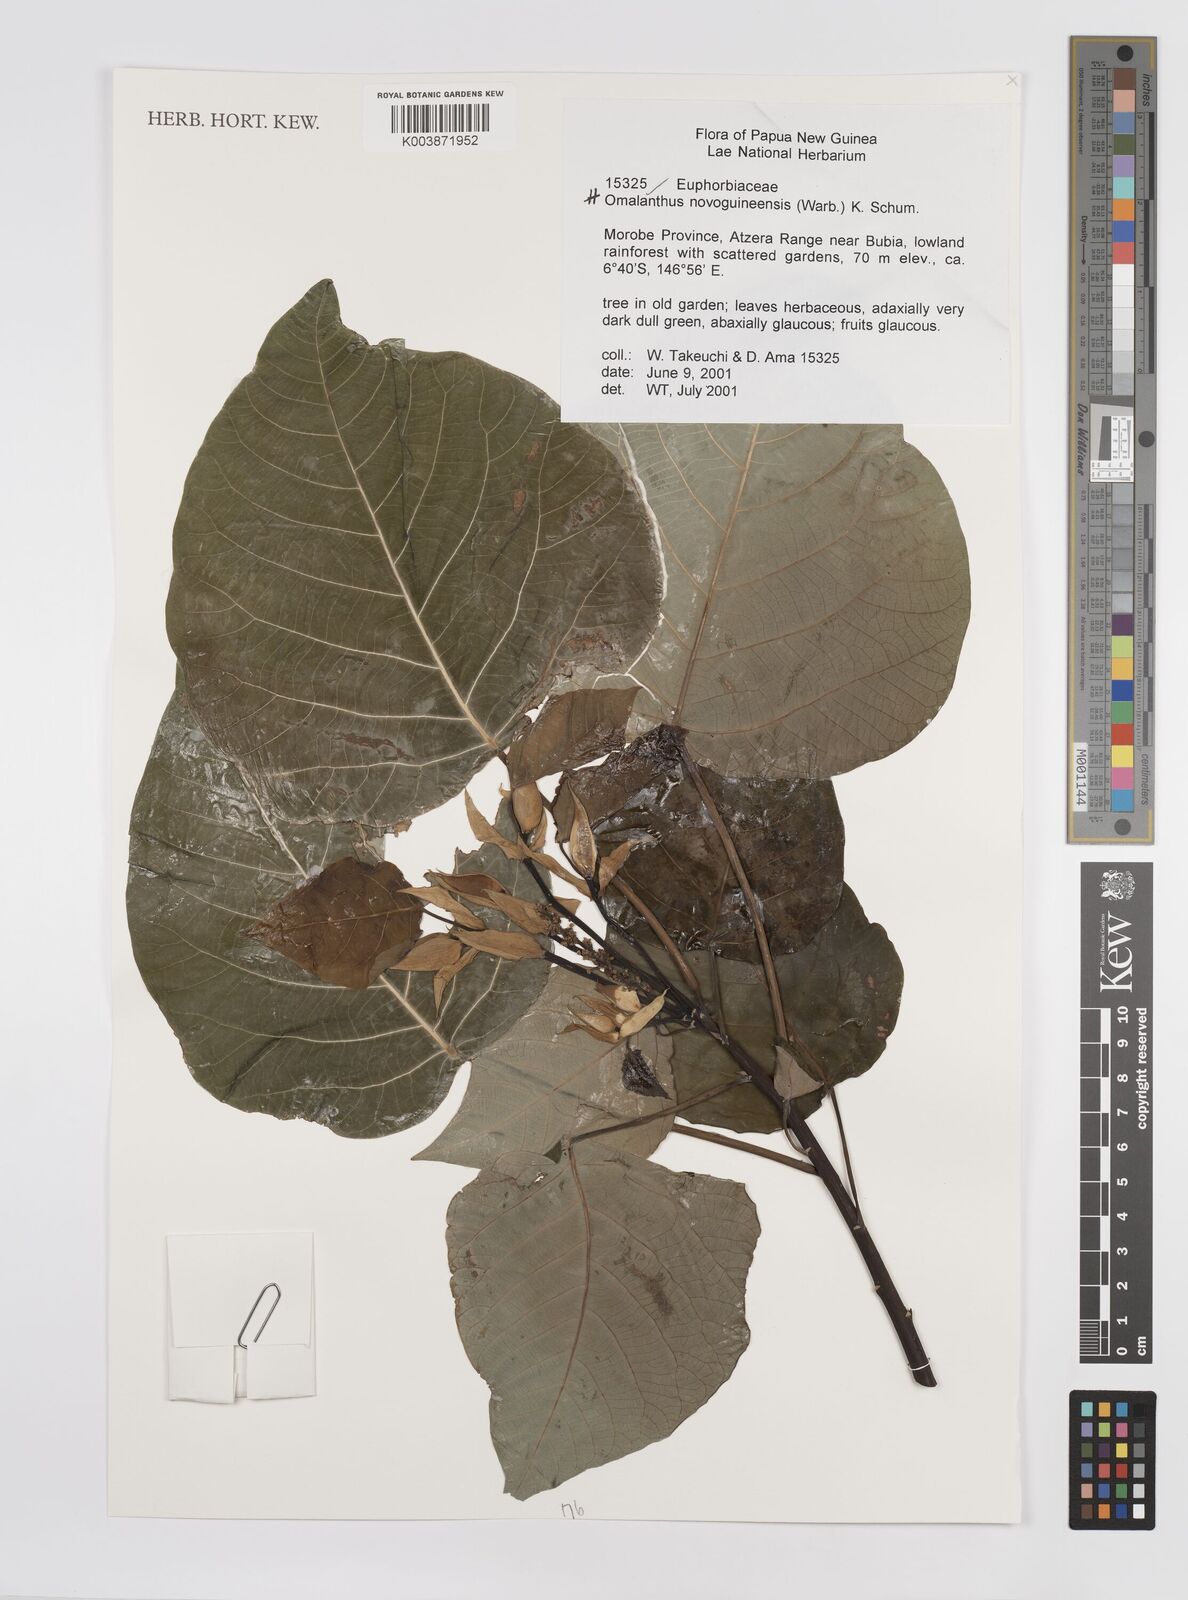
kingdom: Plantae
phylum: Tracheophyta
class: Magnoliopsida
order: Malpighiales
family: Euphorbiaceae
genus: Homalanthus
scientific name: Homalanthus novoguineensis
